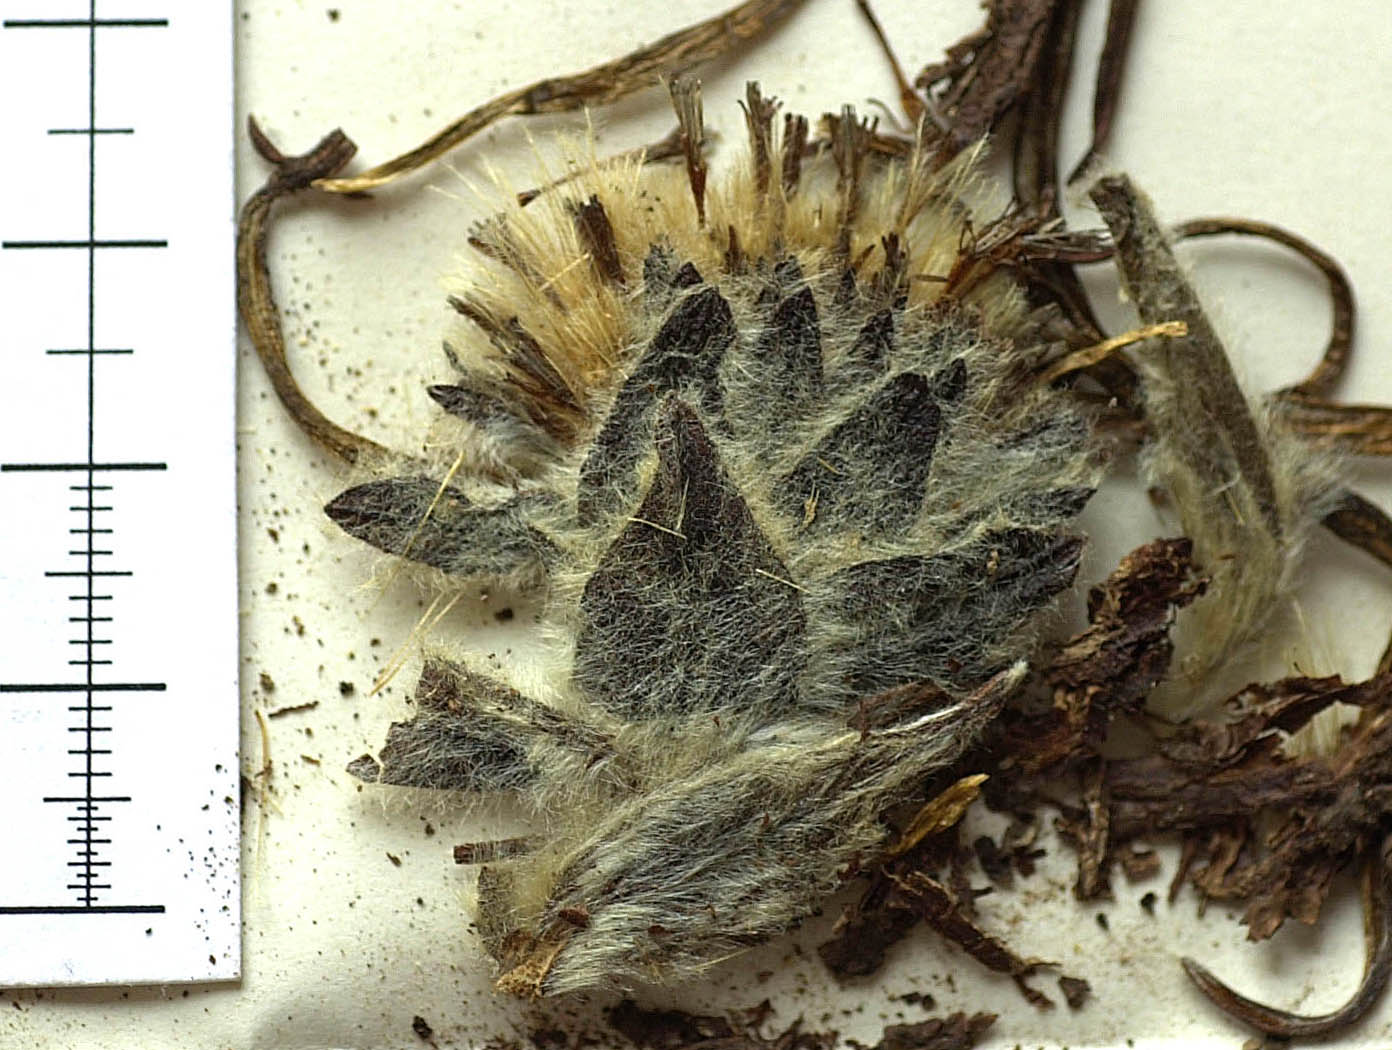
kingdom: Plantae
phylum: Tracheophyta
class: Magnoliopsida
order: Asterales
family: Asteraceae
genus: Saussurea
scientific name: Saussurea hookeri
